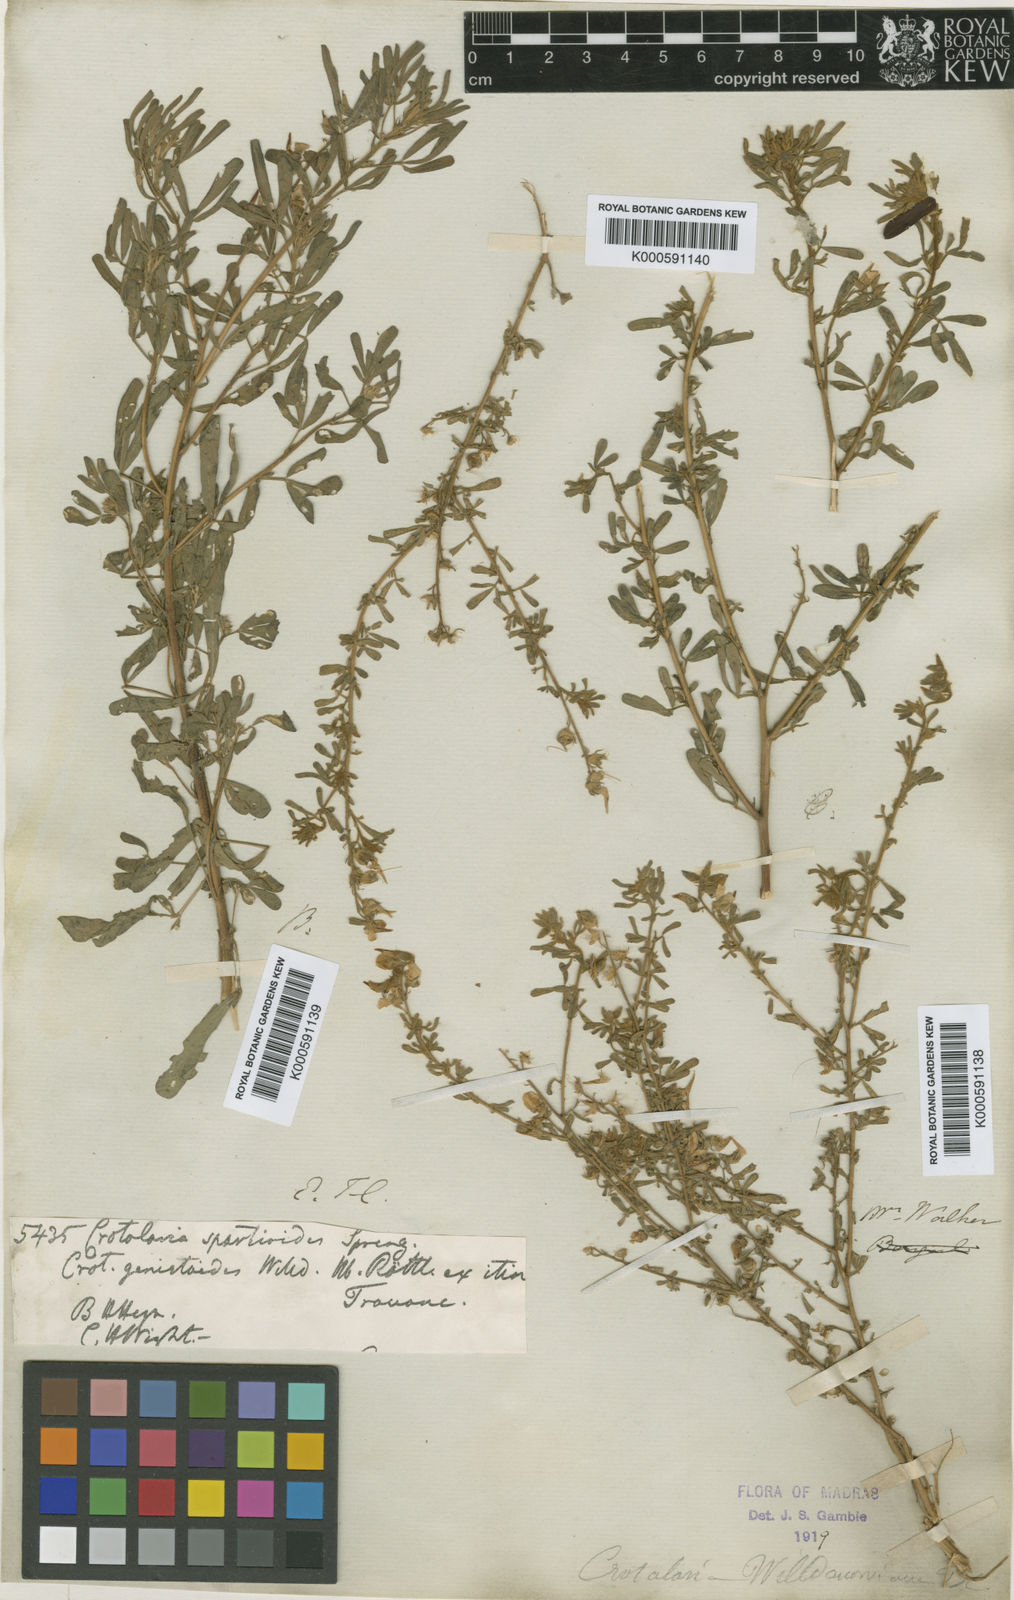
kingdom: Plantae
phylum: Tracheophyta
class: Magnoliopsida
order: Fabales
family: Fabaceae
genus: Crotalaria
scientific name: Crotalaria
